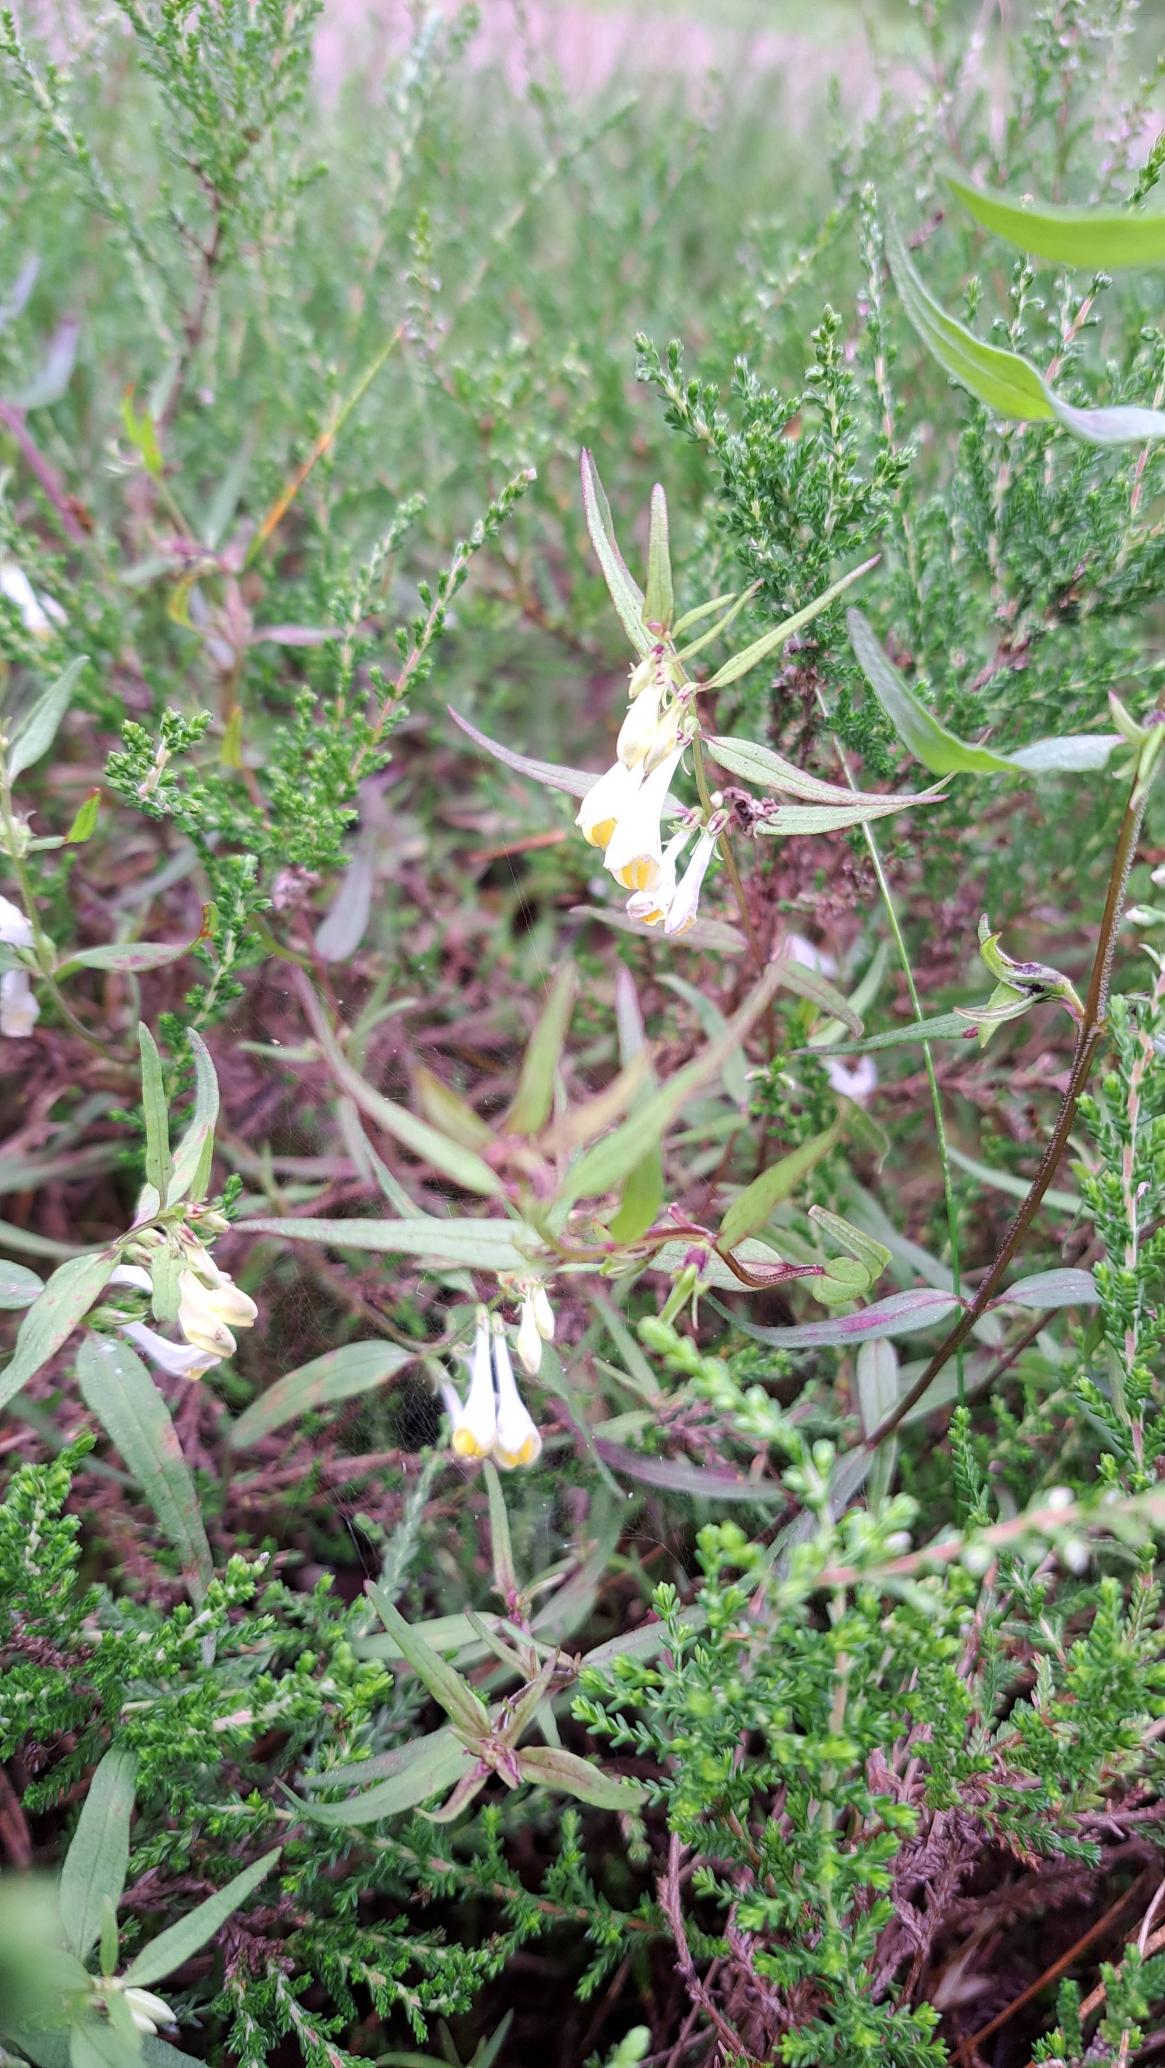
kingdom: Plantae
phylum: Tracheophyta
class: Magnoliopsida
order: Lamiales
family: Orobanchaceae
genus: Melampyrum
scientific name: Melampyrum pratense
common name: Almindelig kohvede
